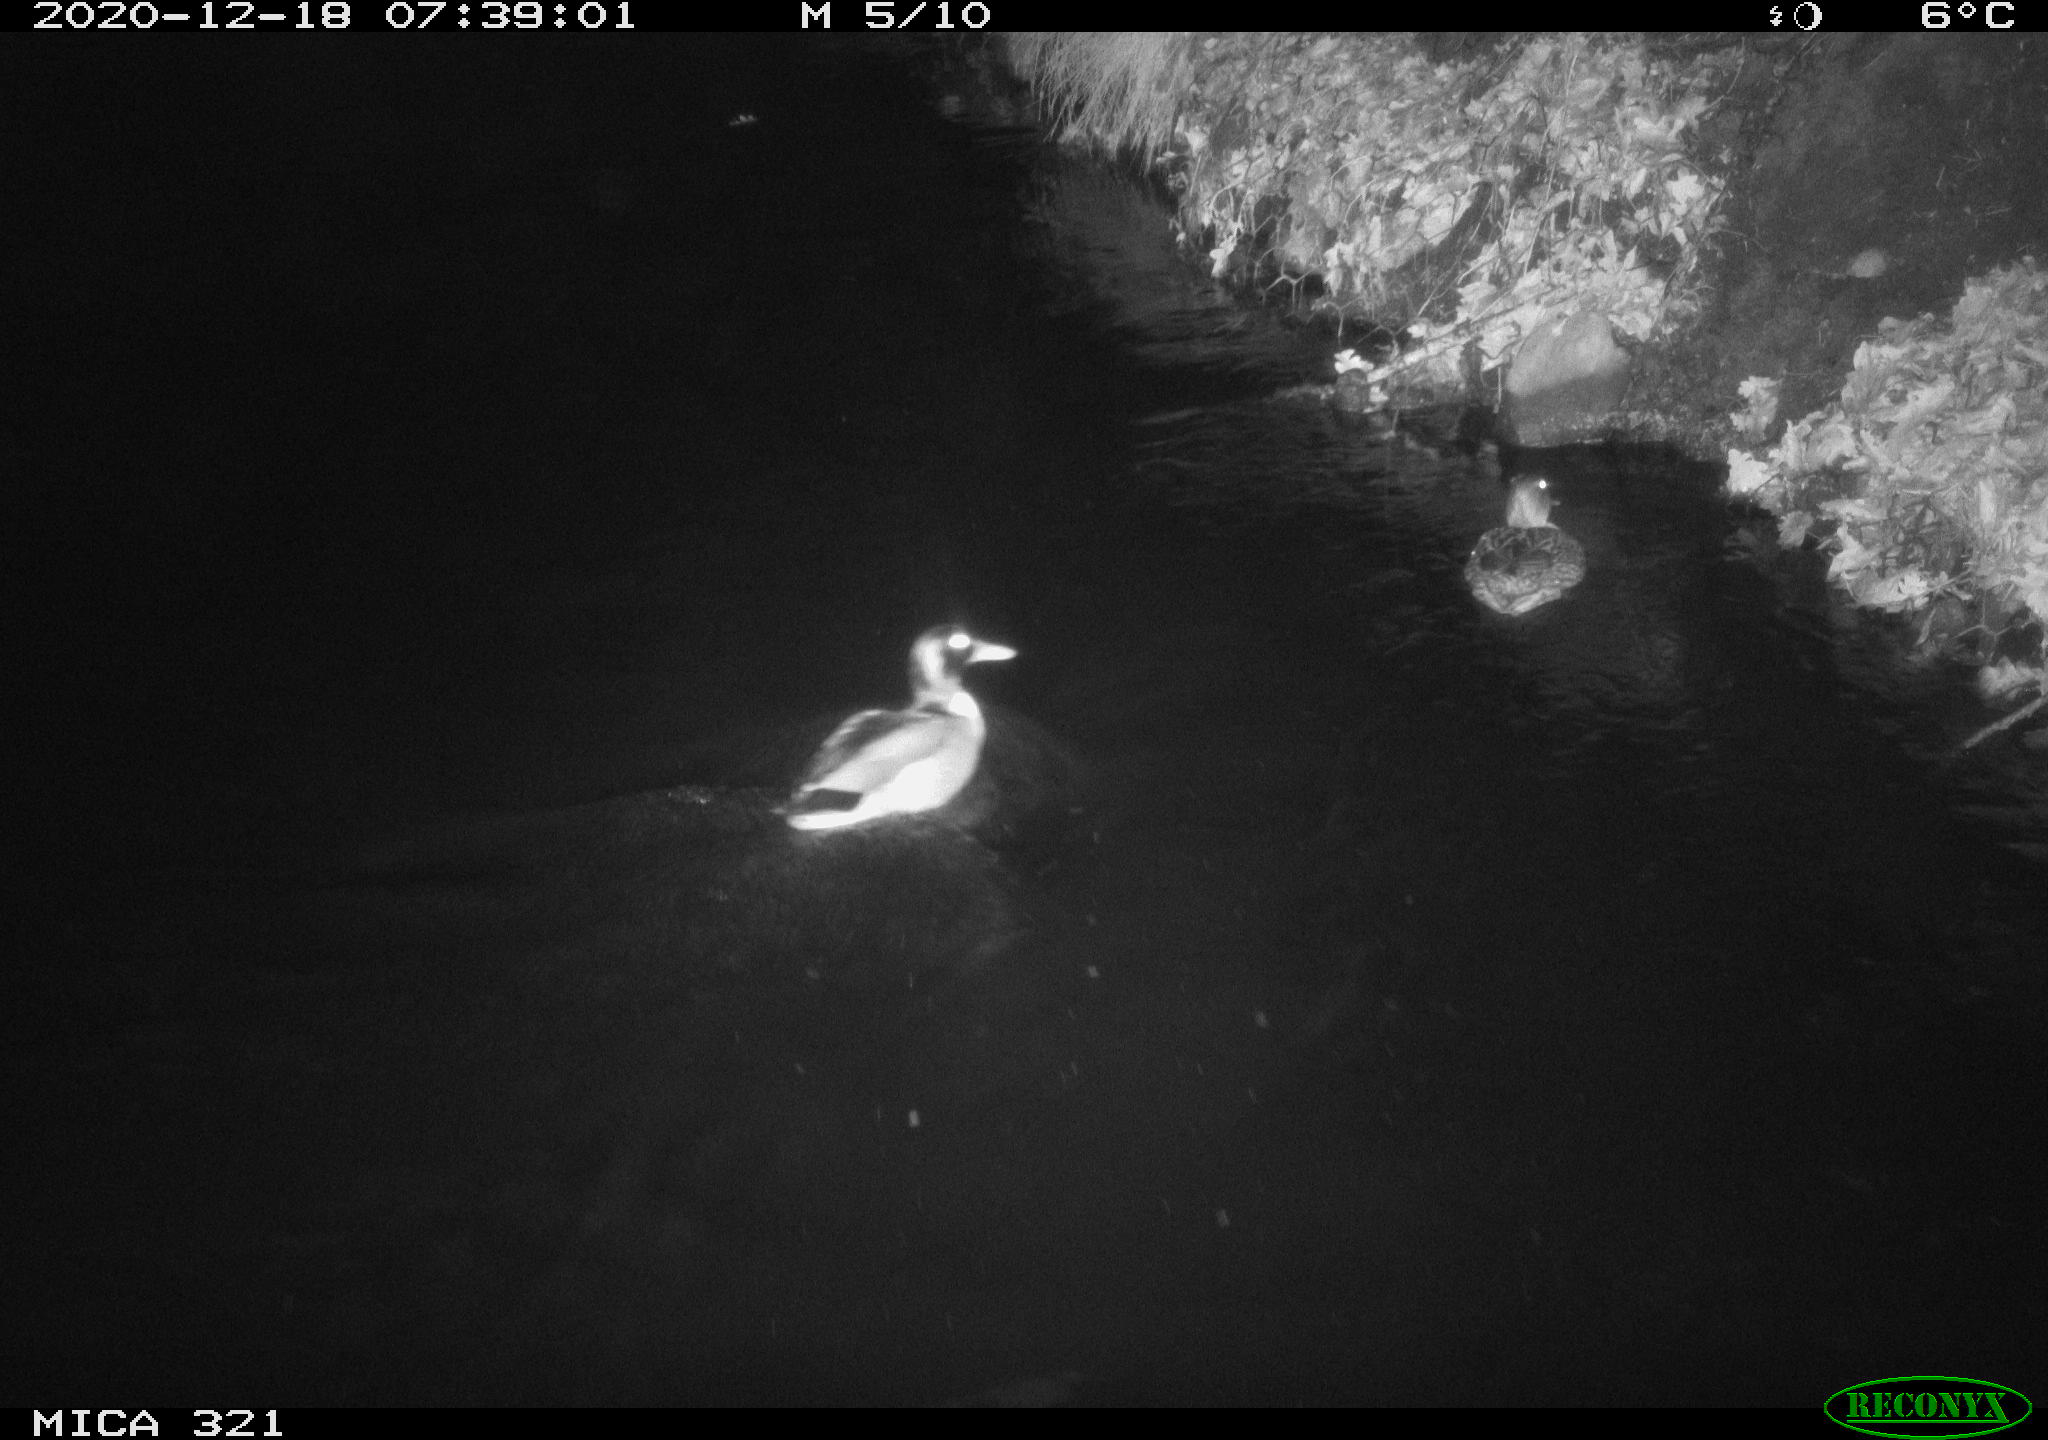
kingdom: Animalia
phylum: Chordata
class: Aves
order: Anseriformes
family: Anatidae
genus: Anas
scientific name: Anas platyrhynchos
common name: Mallard
